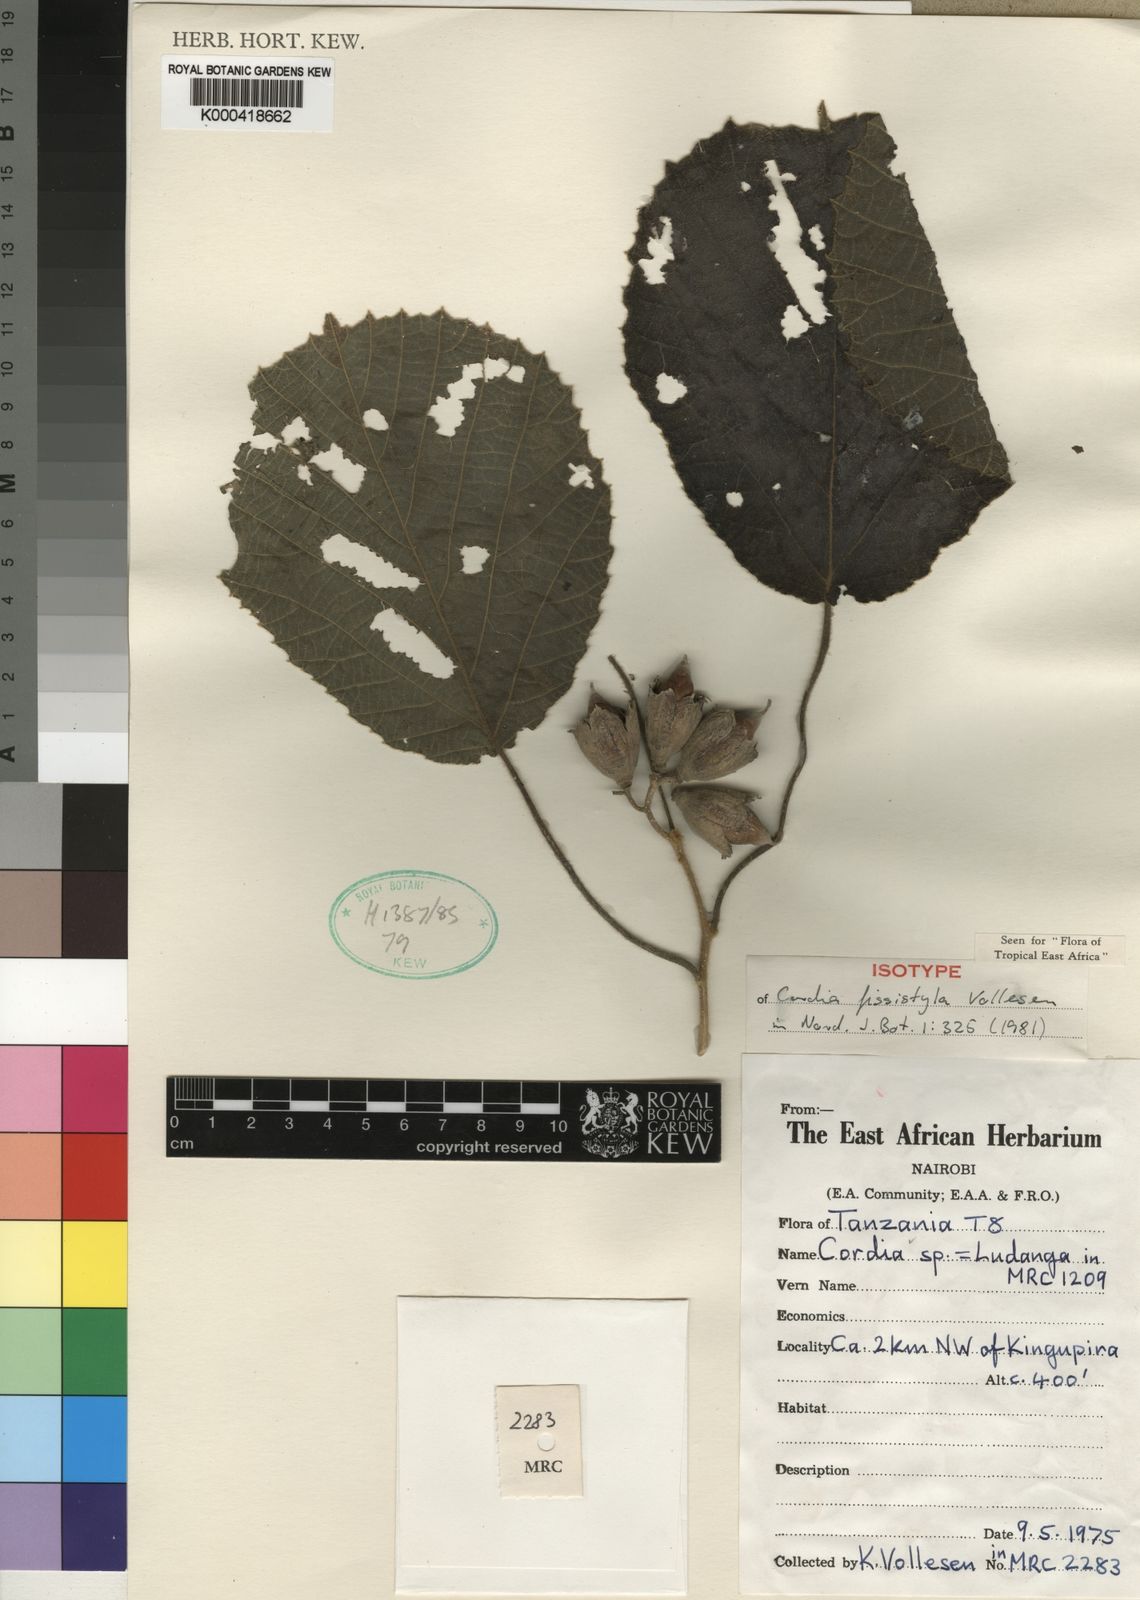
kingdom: Plantae
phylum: Tracheophyta
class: Magnoliopsida
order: Boraginales
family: Cordiaceae
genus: Cordia
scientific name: Cordia fissistyla
